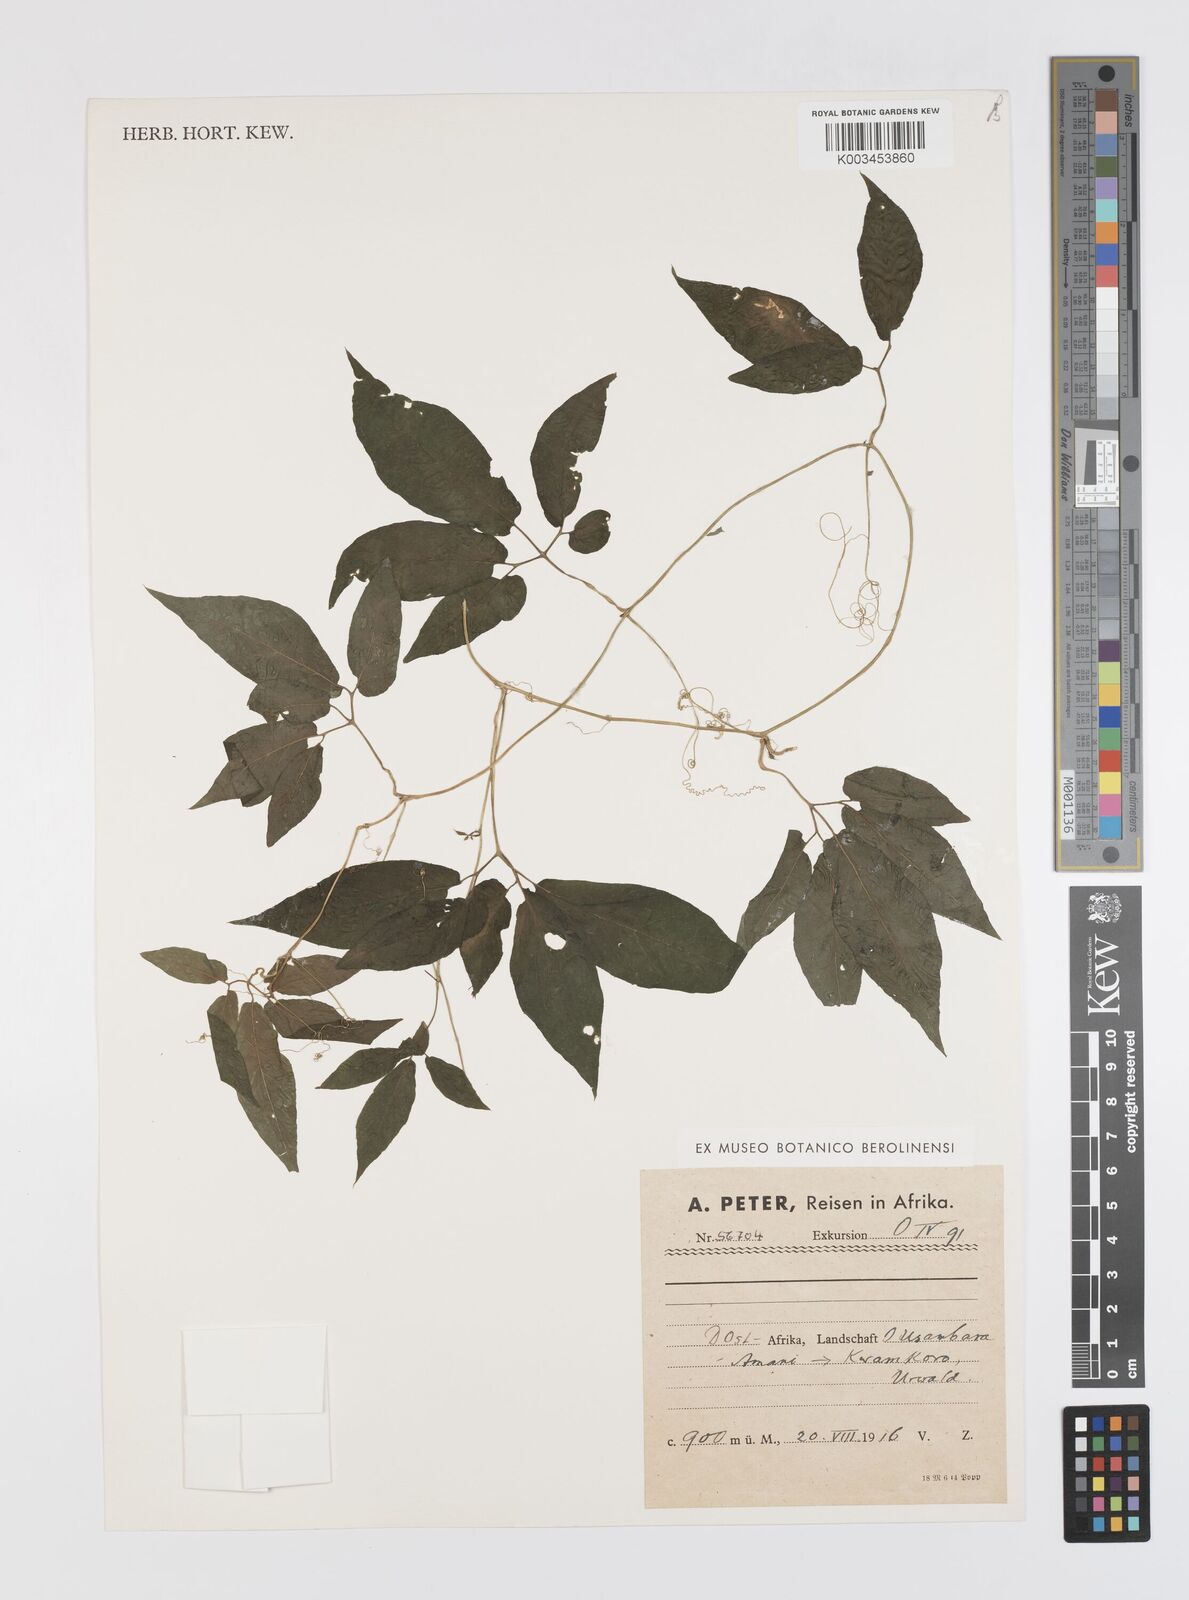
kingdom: Plantae
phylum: Tracheophyta
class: Magnoliopsida
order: Cucurbitales
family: Cucurbitaceae
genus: Momordica
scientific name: Momordica anigosantha
